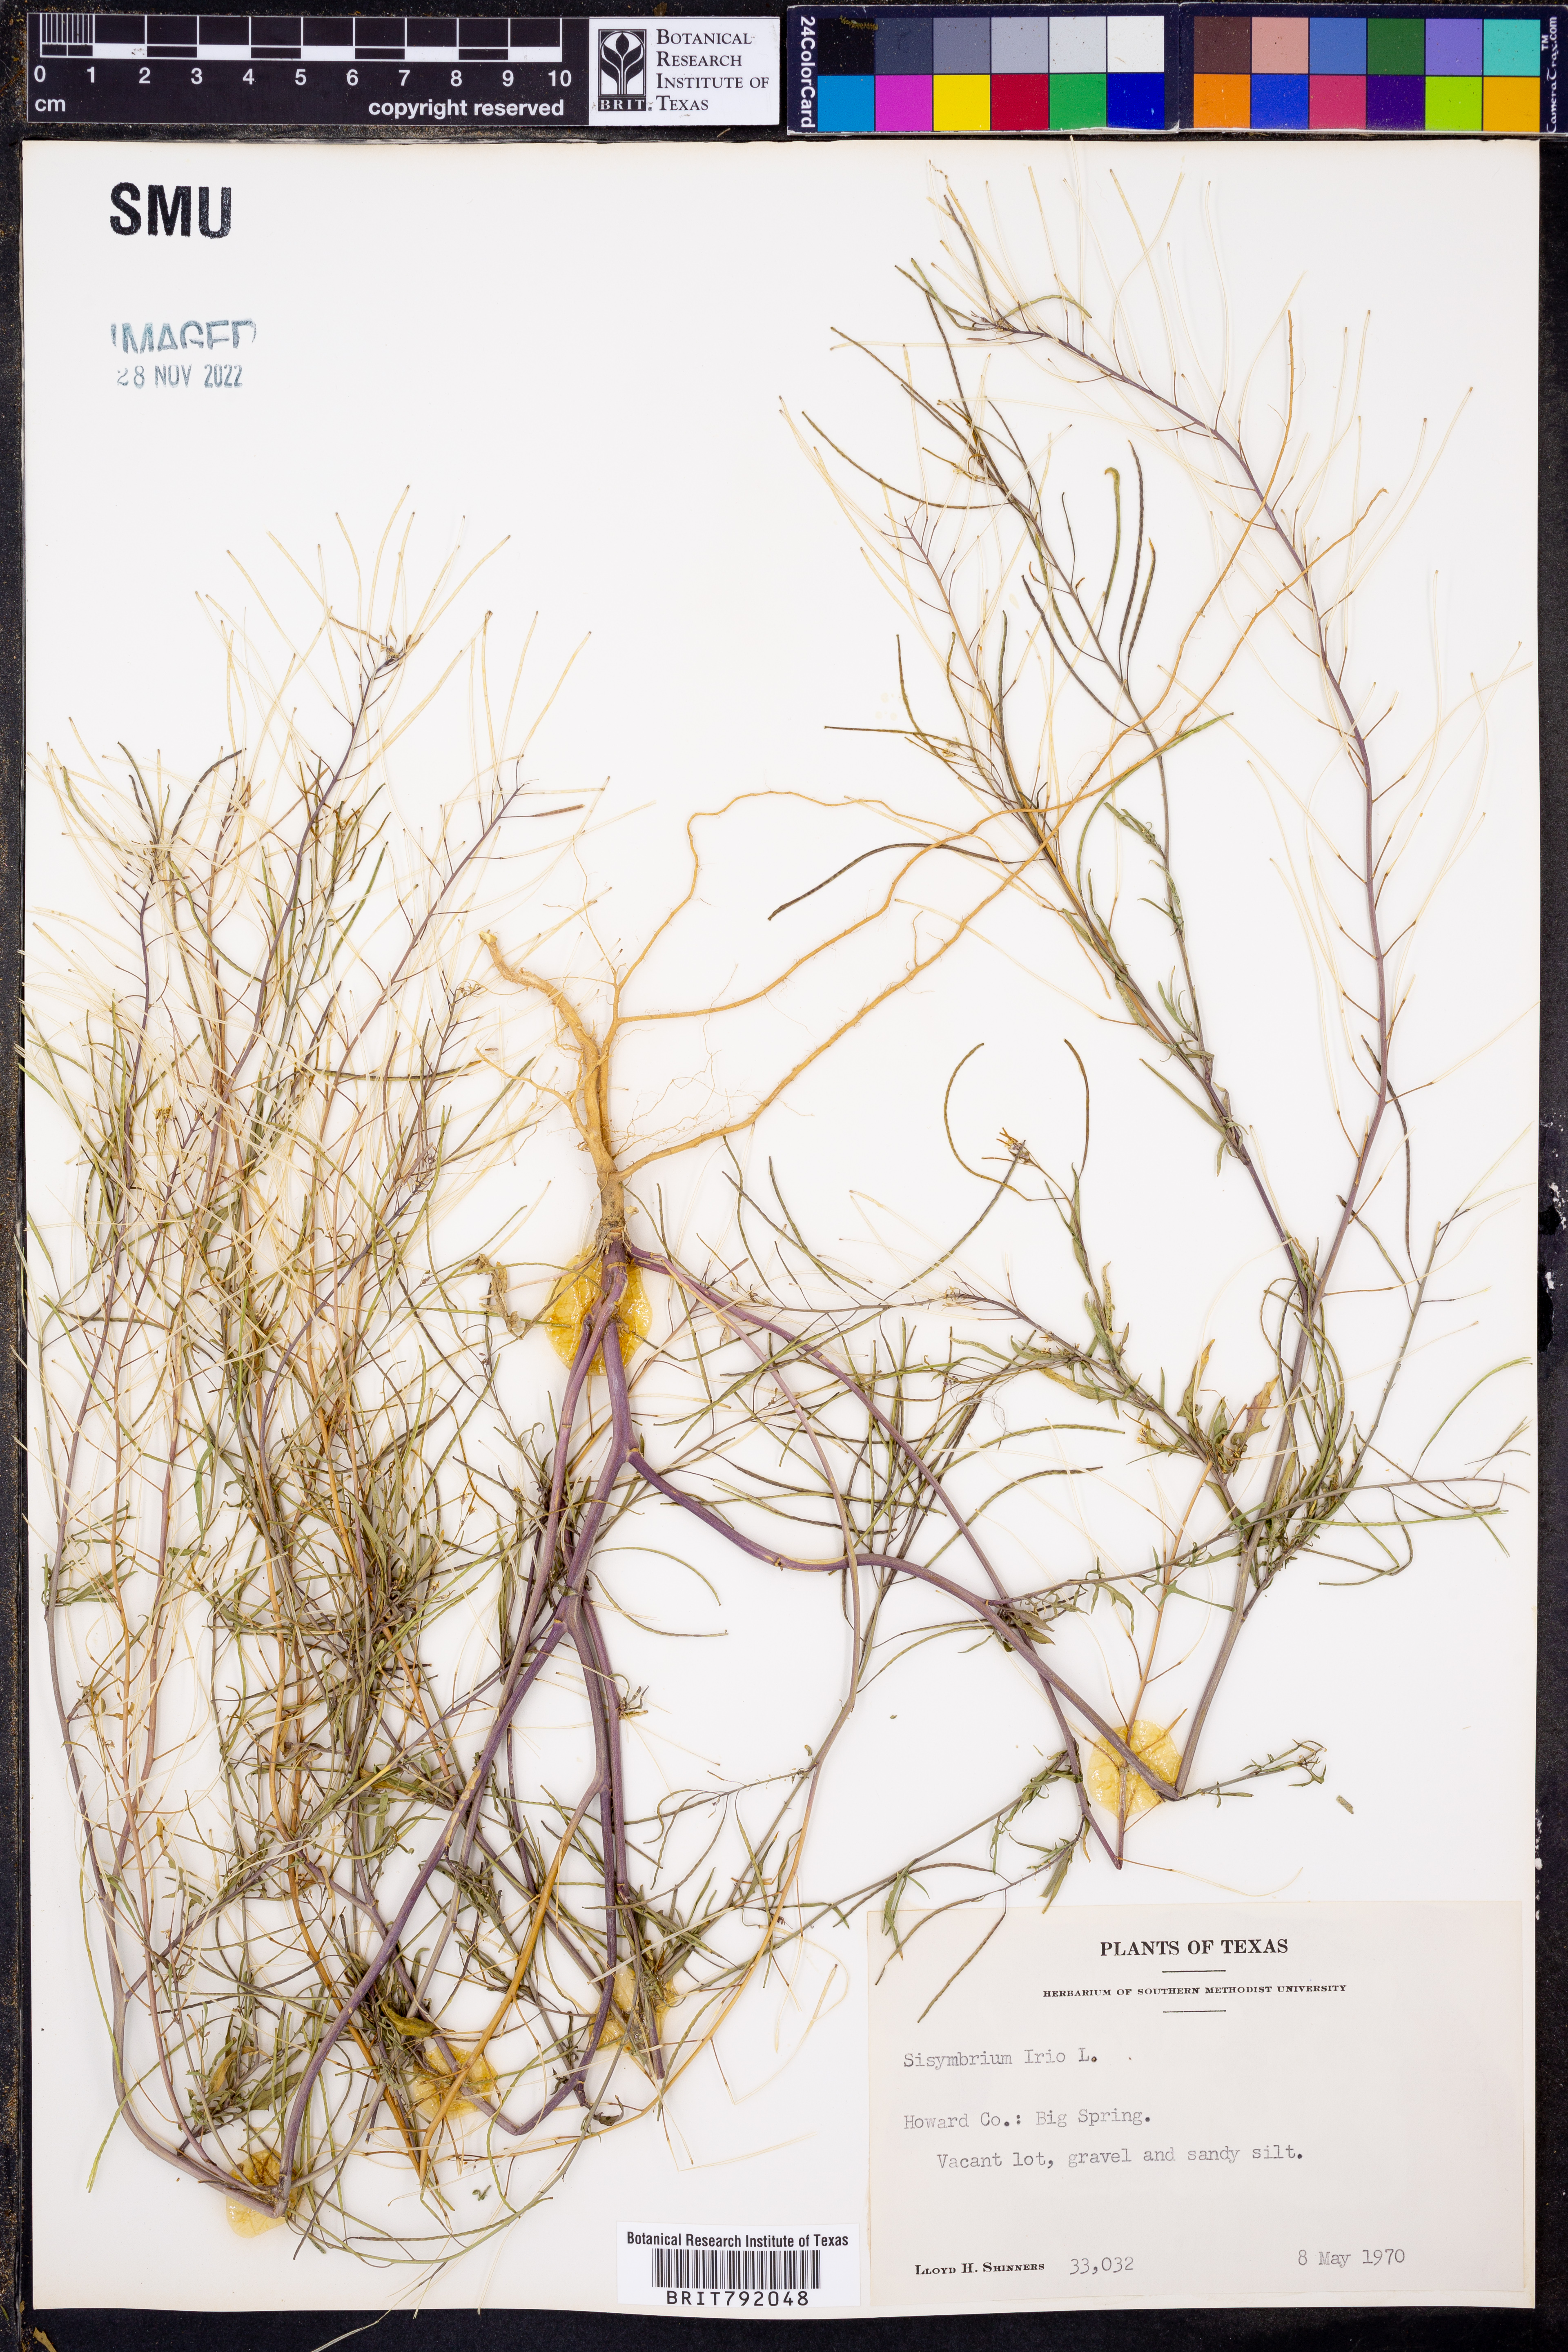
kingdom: Plantae
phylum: Tracheophyta
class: Magnoliopsida
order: Brassicales
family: Brassicaceae
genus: Sisymbrium
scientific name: Sisymbrium irio
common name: London rocket
